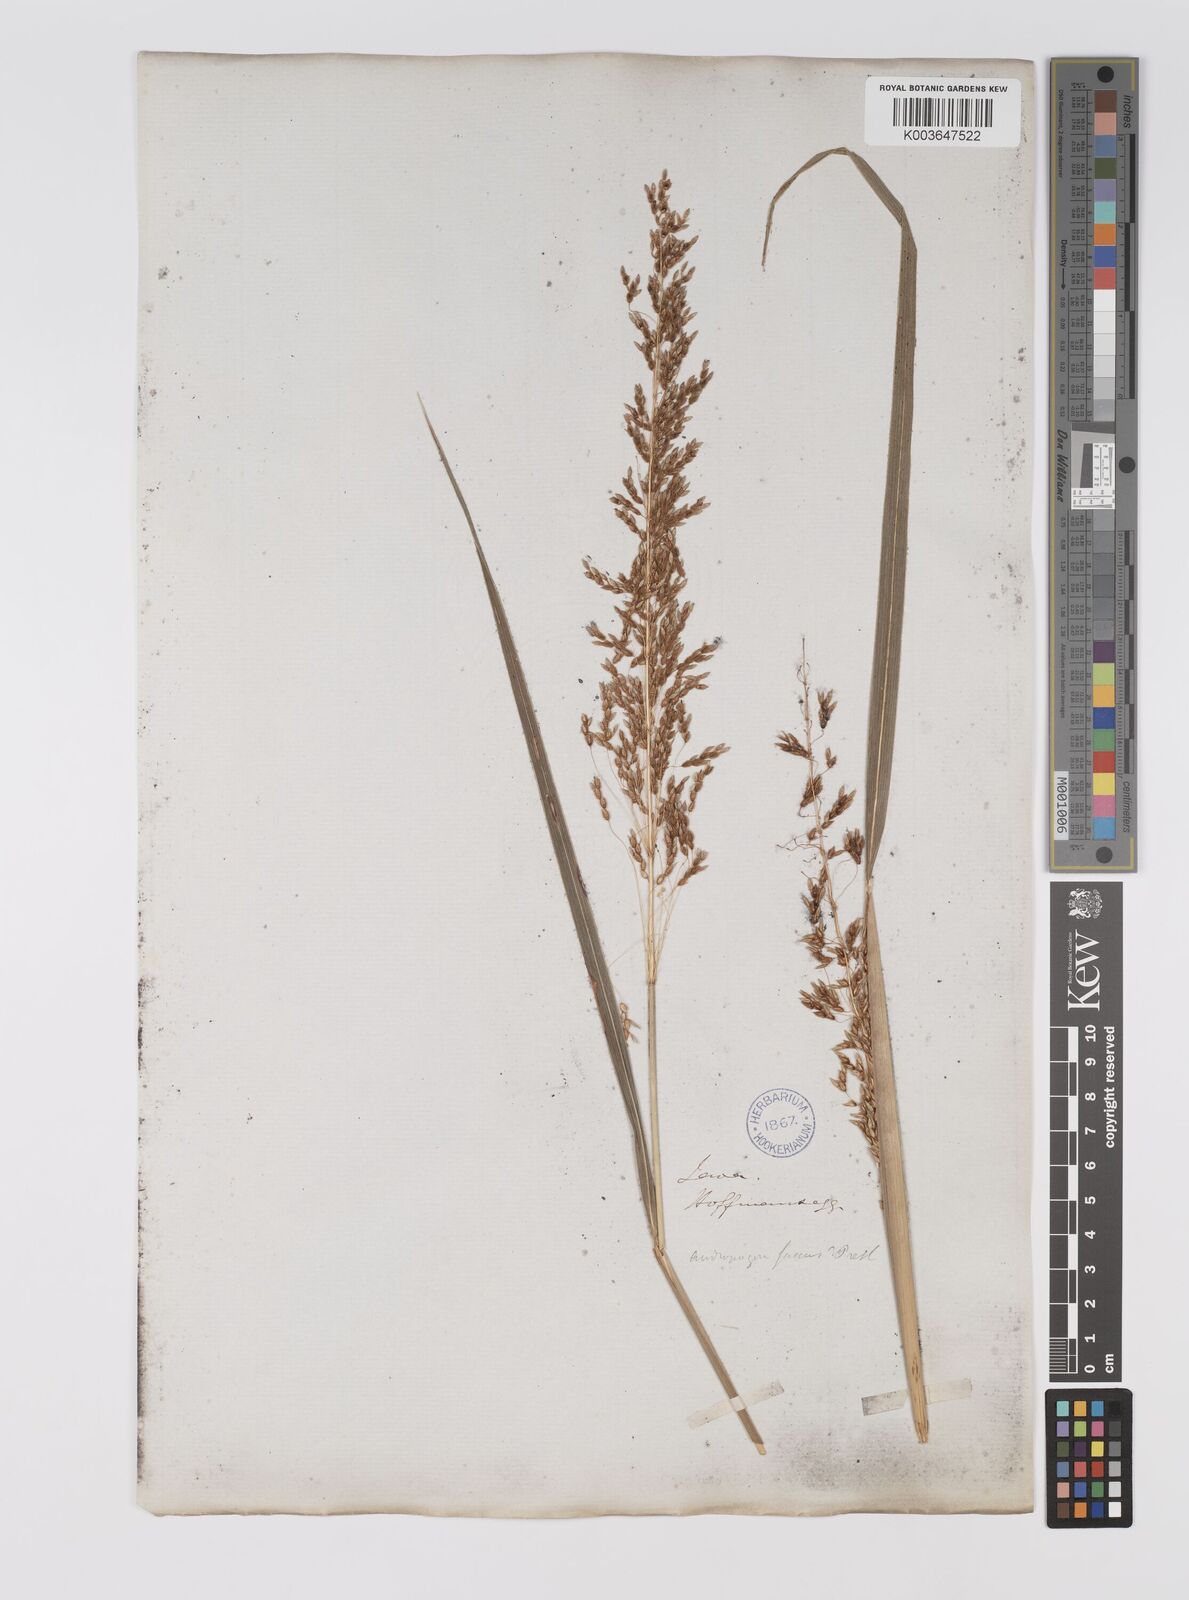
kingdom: Plantae
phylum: Tracheophyta
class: Liliopsida
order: Poales
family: Poaceae
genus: Sorghum
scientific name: Sorghum nitidum
